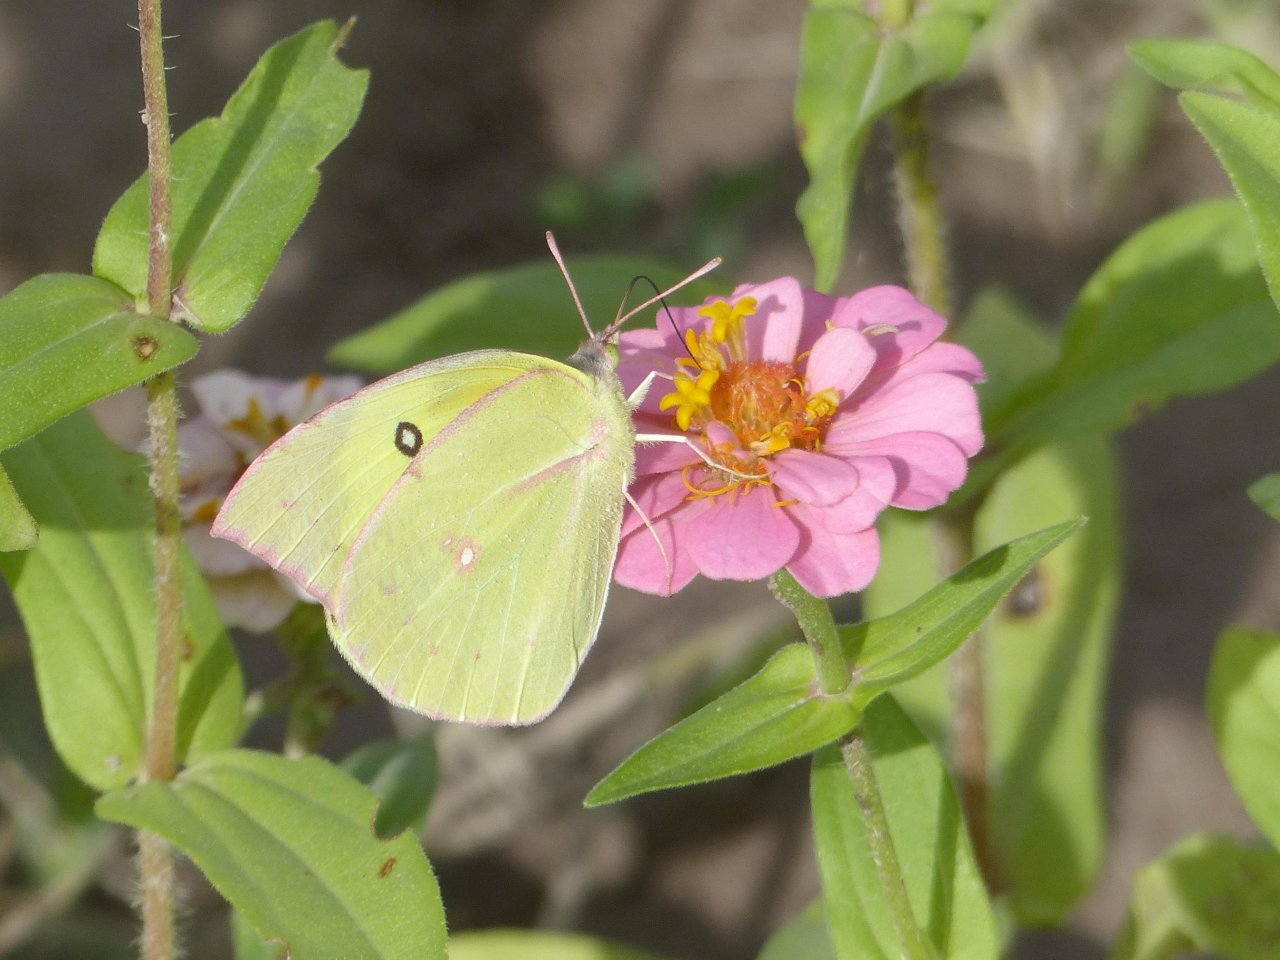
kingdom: Animalia
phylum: Arthropoda
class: Insecta
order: Lepidoptera
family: Pieridae
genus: Zerene
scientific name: Zerene cesonia
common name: Southern Dogface
